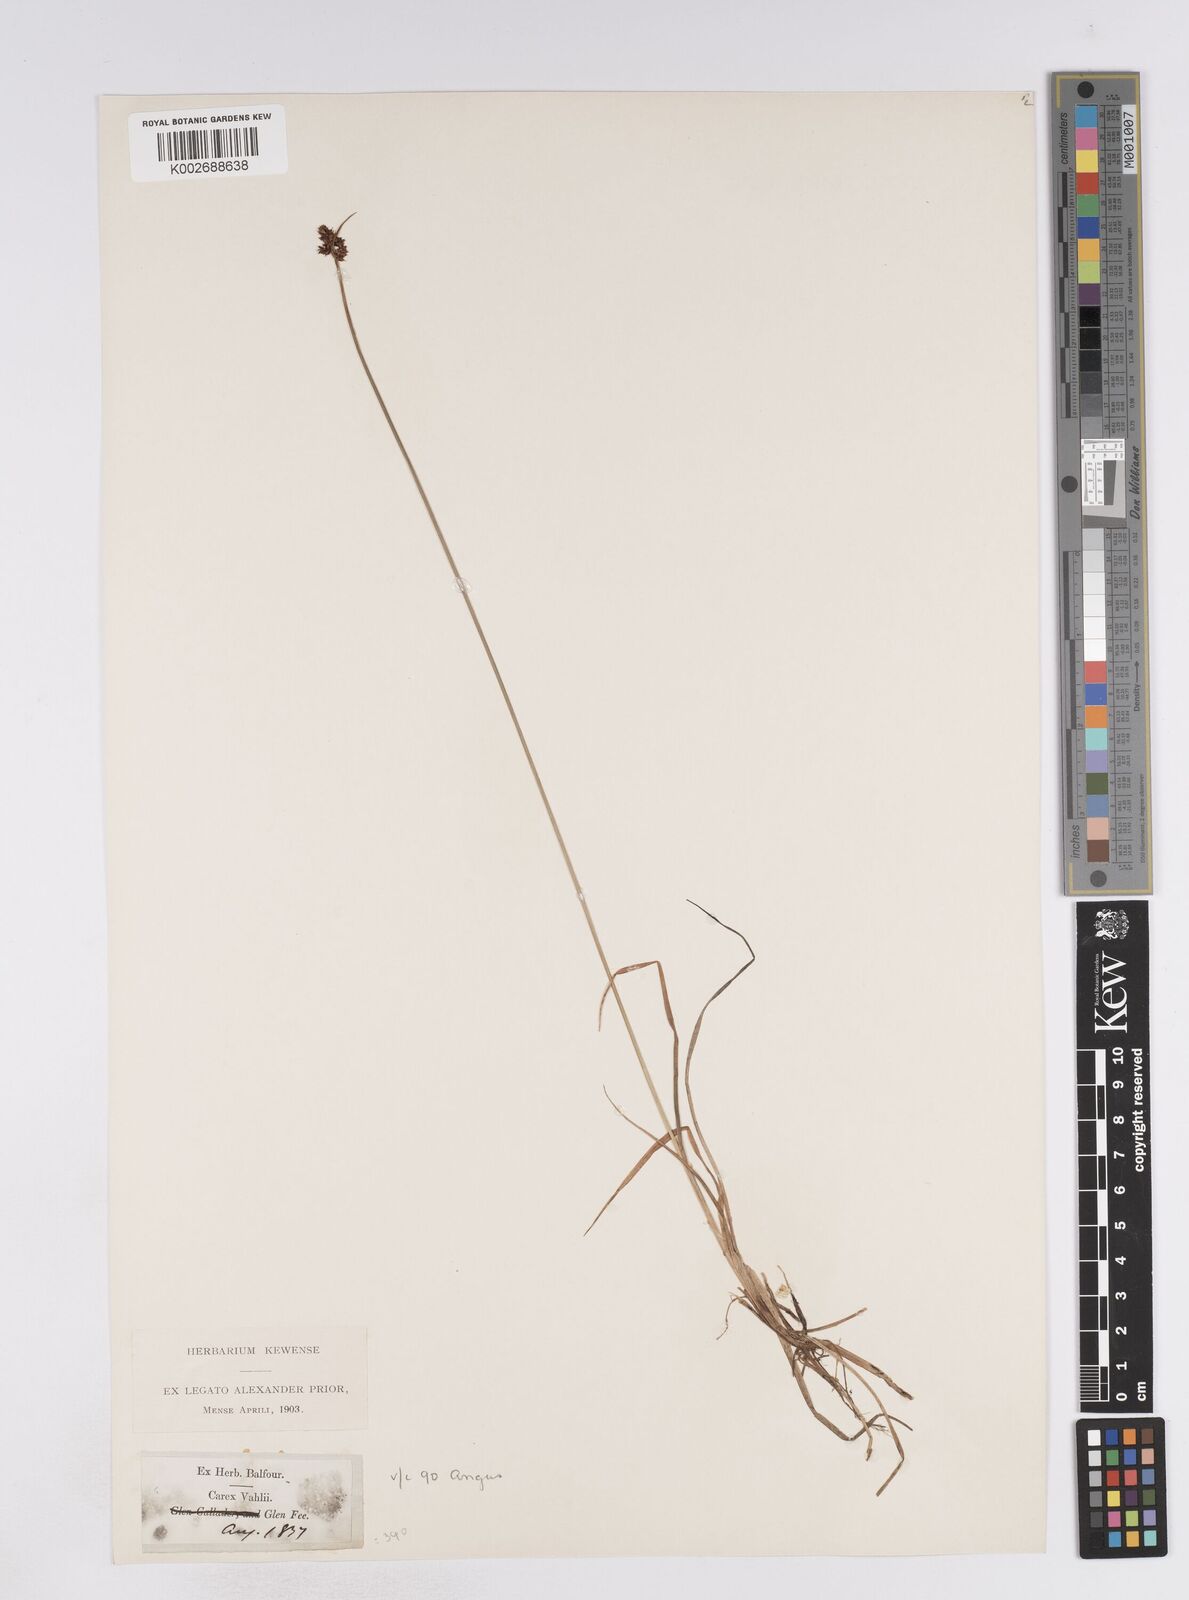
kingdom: Plantae
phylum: Tracheophyta
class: Liliopsida
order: Poales
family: Cyperaceae
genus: Carex
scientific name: Carex norvegica
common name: Close-headed alpine-sedge
